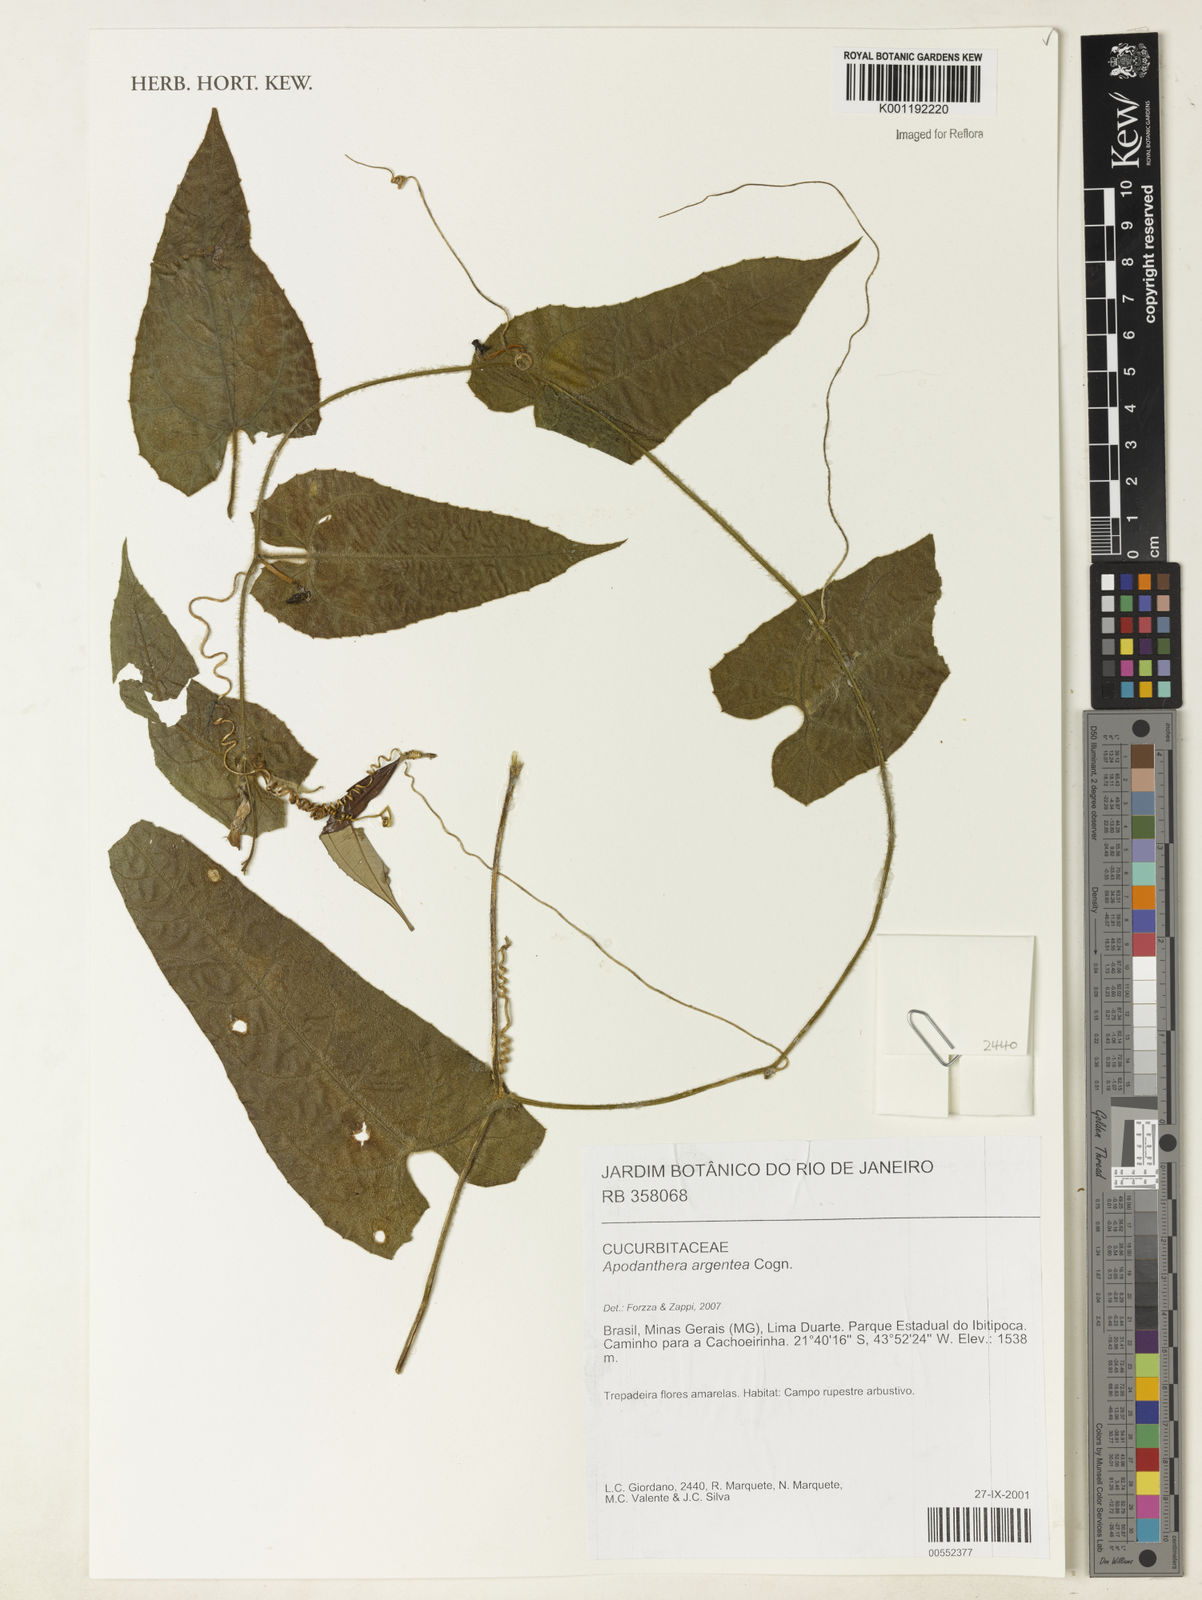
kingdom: Plantae
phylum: Tracheophyta
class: Magnoliopsida
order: Cucurbitales
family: Cucurbitaceae
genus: Apodanthera
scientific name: Apodanthera argentea
